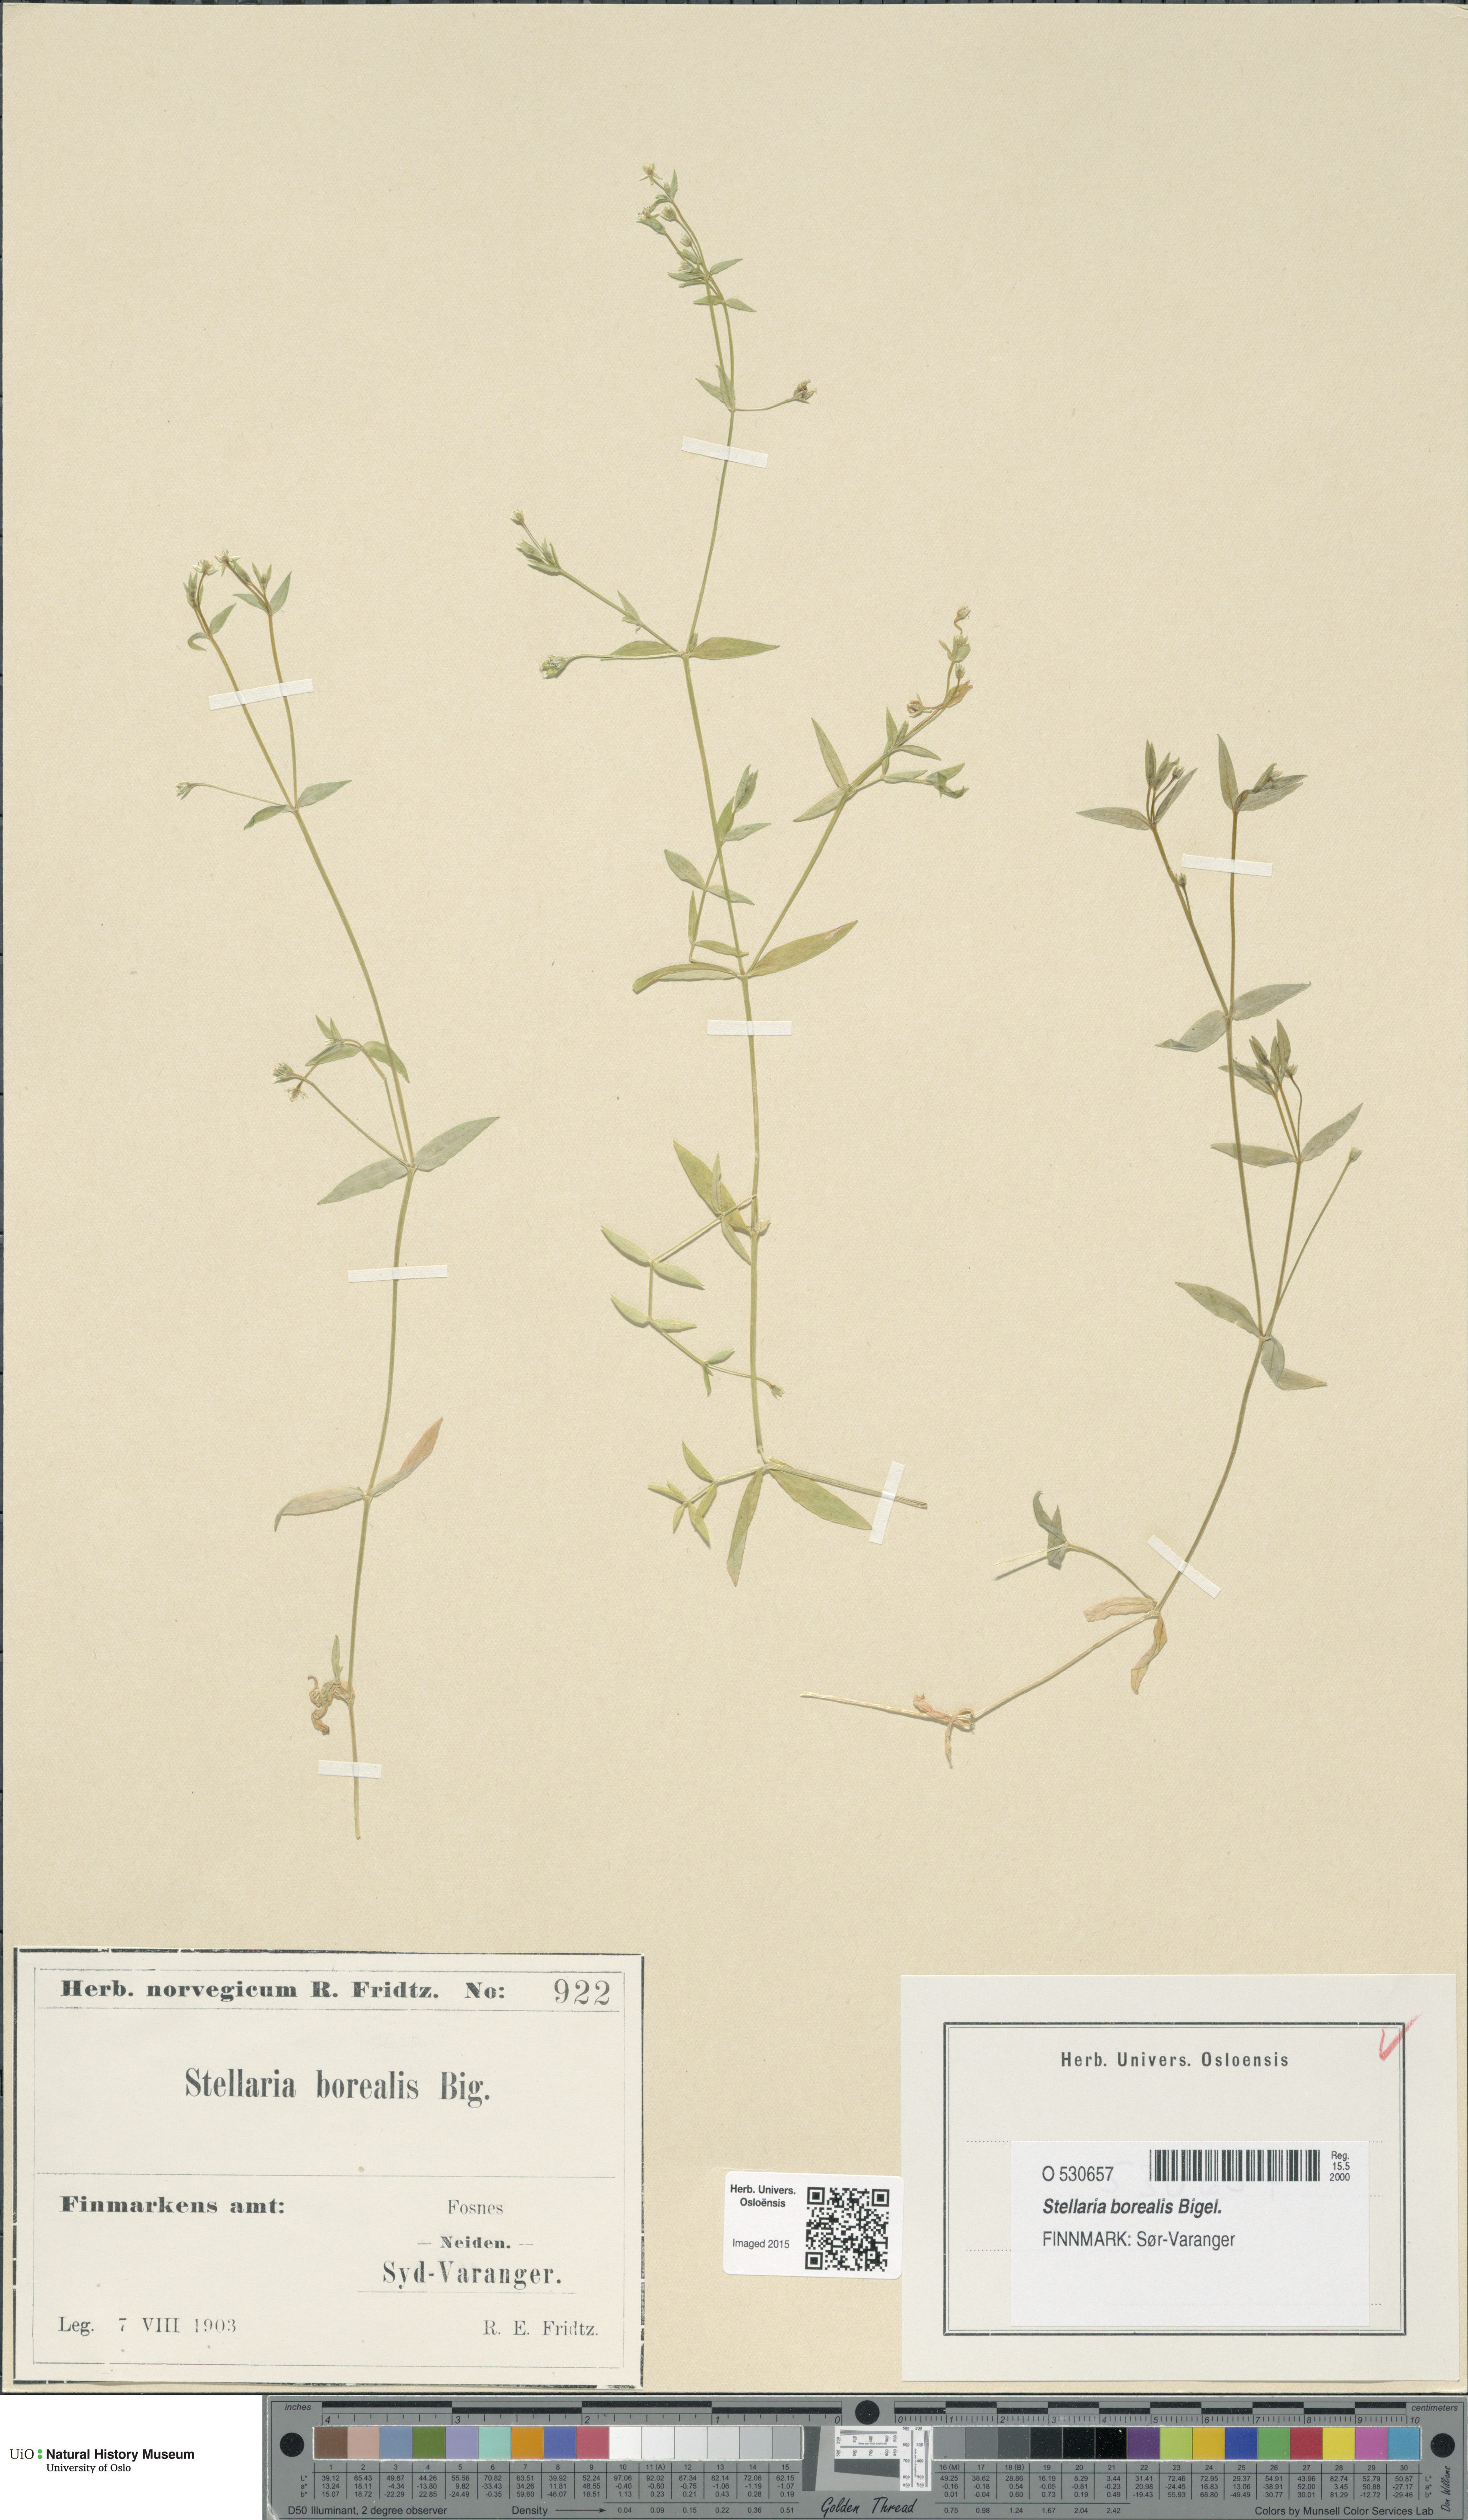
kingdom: Plantae
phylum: Tracheophyta
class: Magnoliopsida
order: Caryophyllales
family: Caryophyllaceae
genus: Stellaria
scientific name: Stellaria borealis
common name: Boreal starwort
